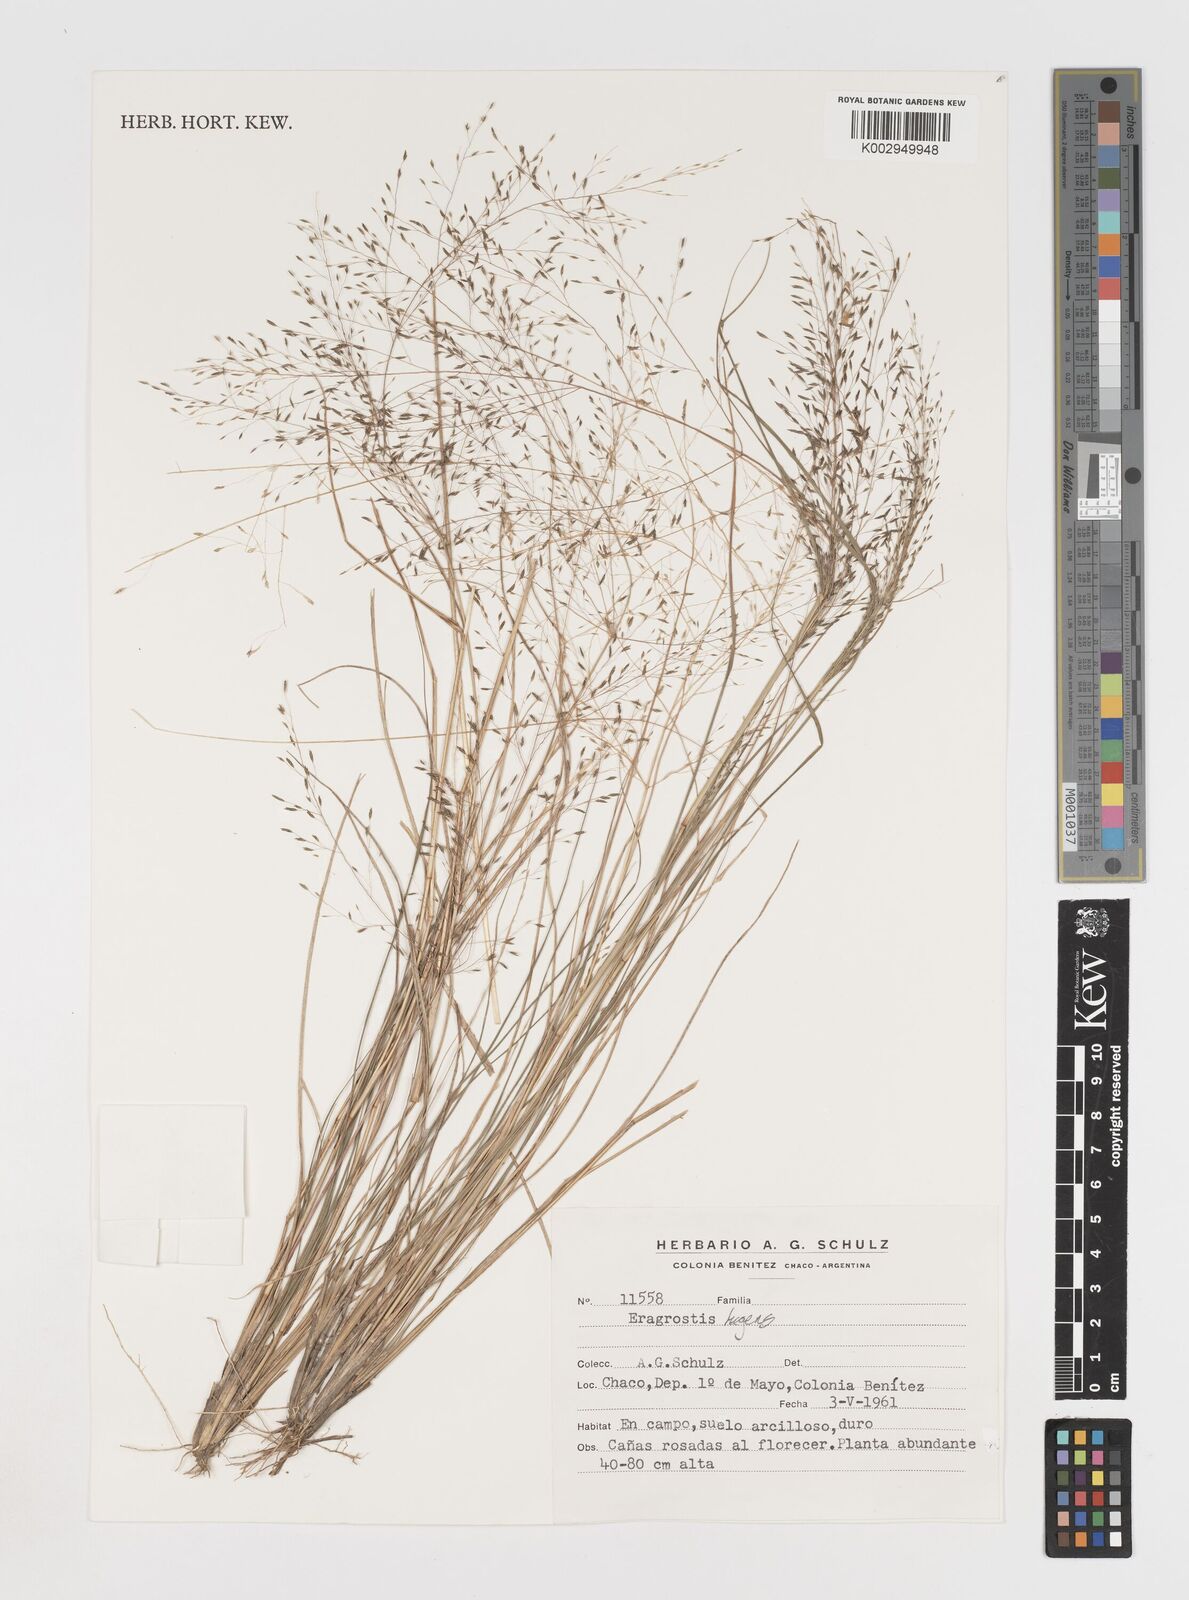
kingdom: Plantae
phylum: Tracheophyta
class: Liliopsida
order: Poales
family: Poaceae
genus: Eragrostis
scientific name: Eragrostis
